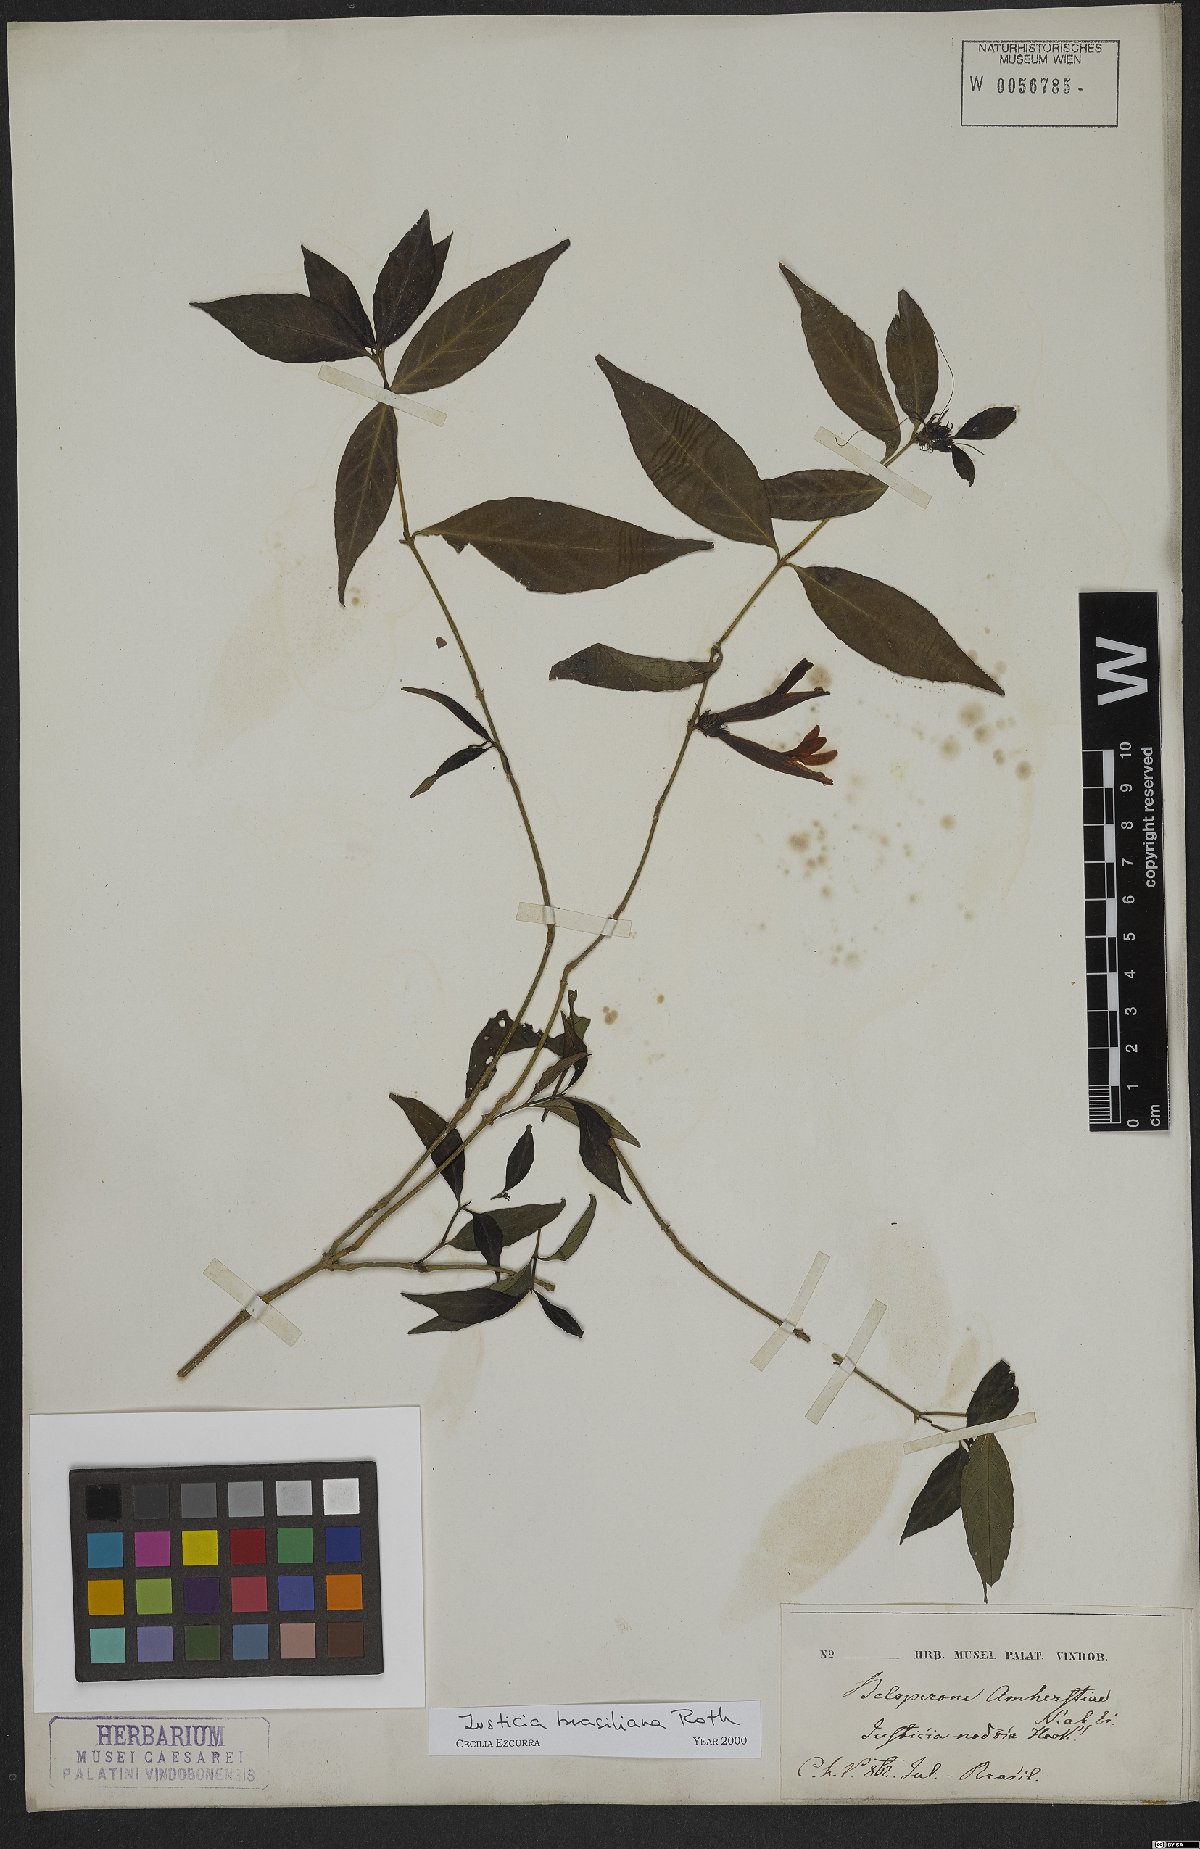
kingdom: Plantae
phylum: Tracheophyta
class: Magnoliopsida
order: Lamiales
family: Acanthaceae
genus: Justicia
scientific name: Justicia brasiliana
